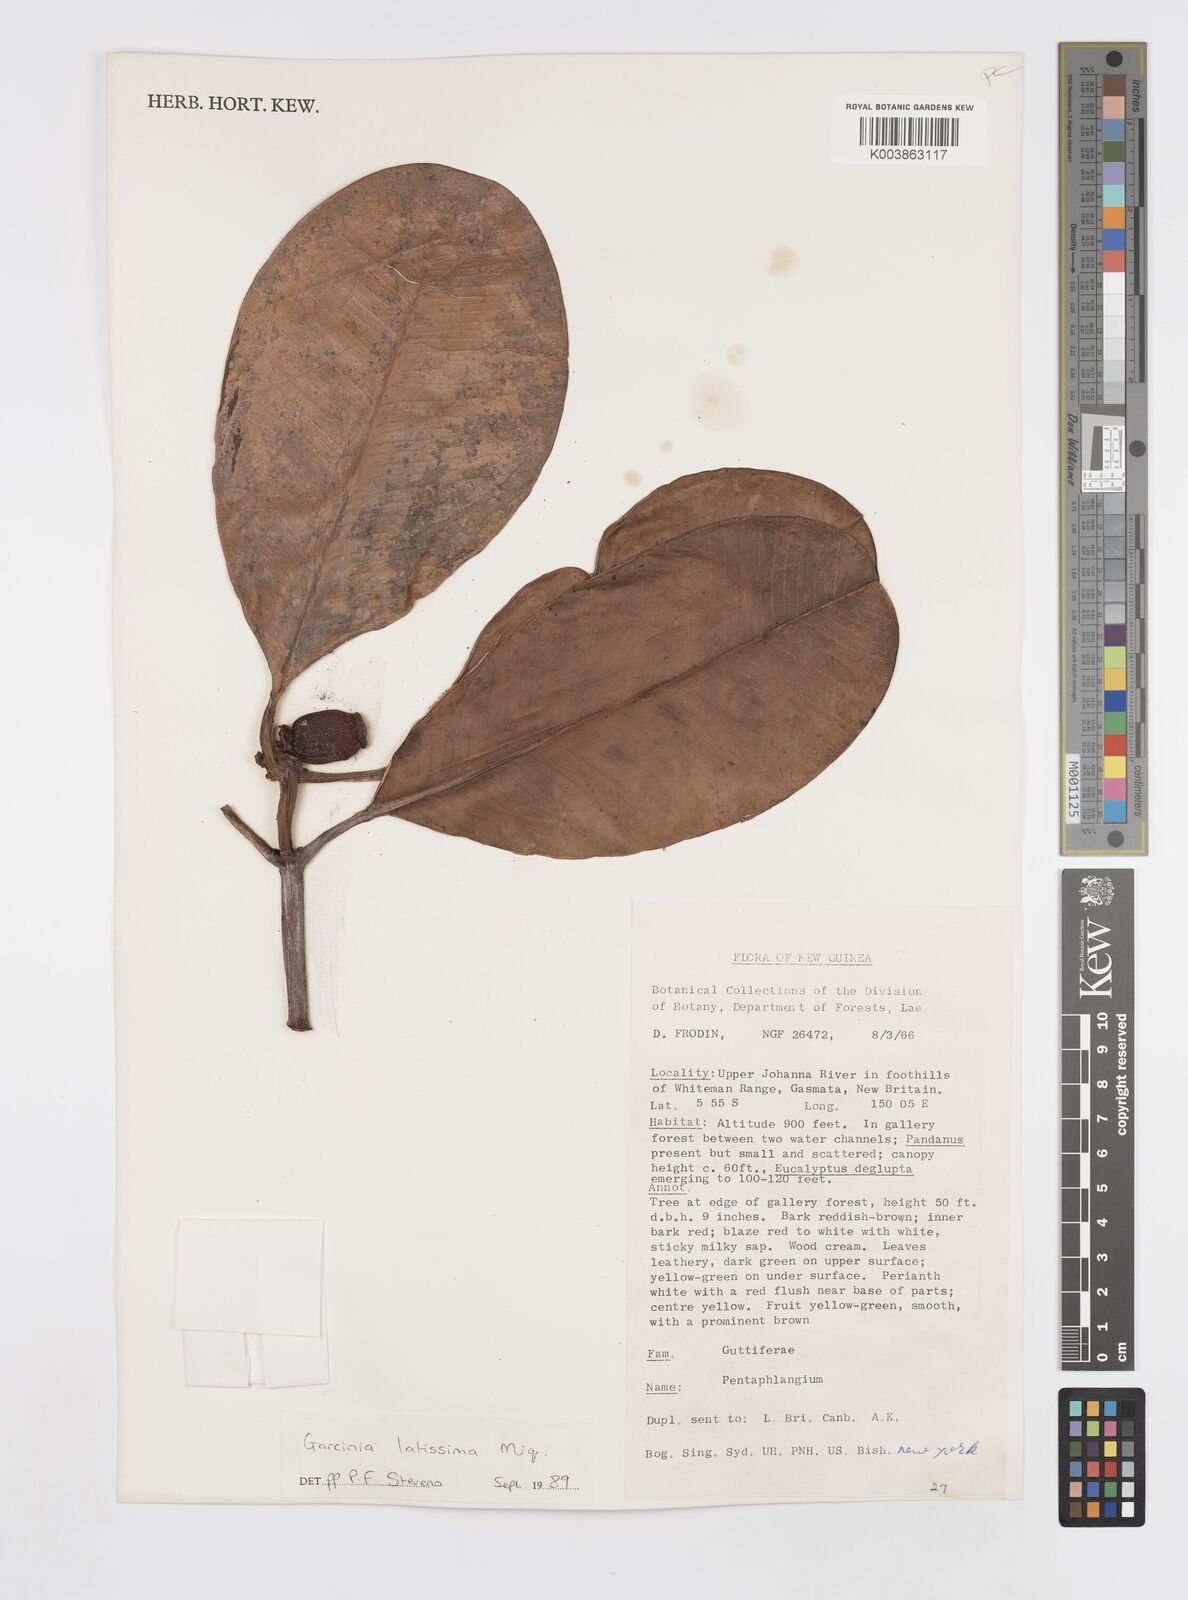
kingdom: Plantae
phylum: Tracheophyta
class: Magnoliopsida
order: Malpighiales
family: Clusiaceae
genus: Garcinia
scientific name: Garcinia latissima
